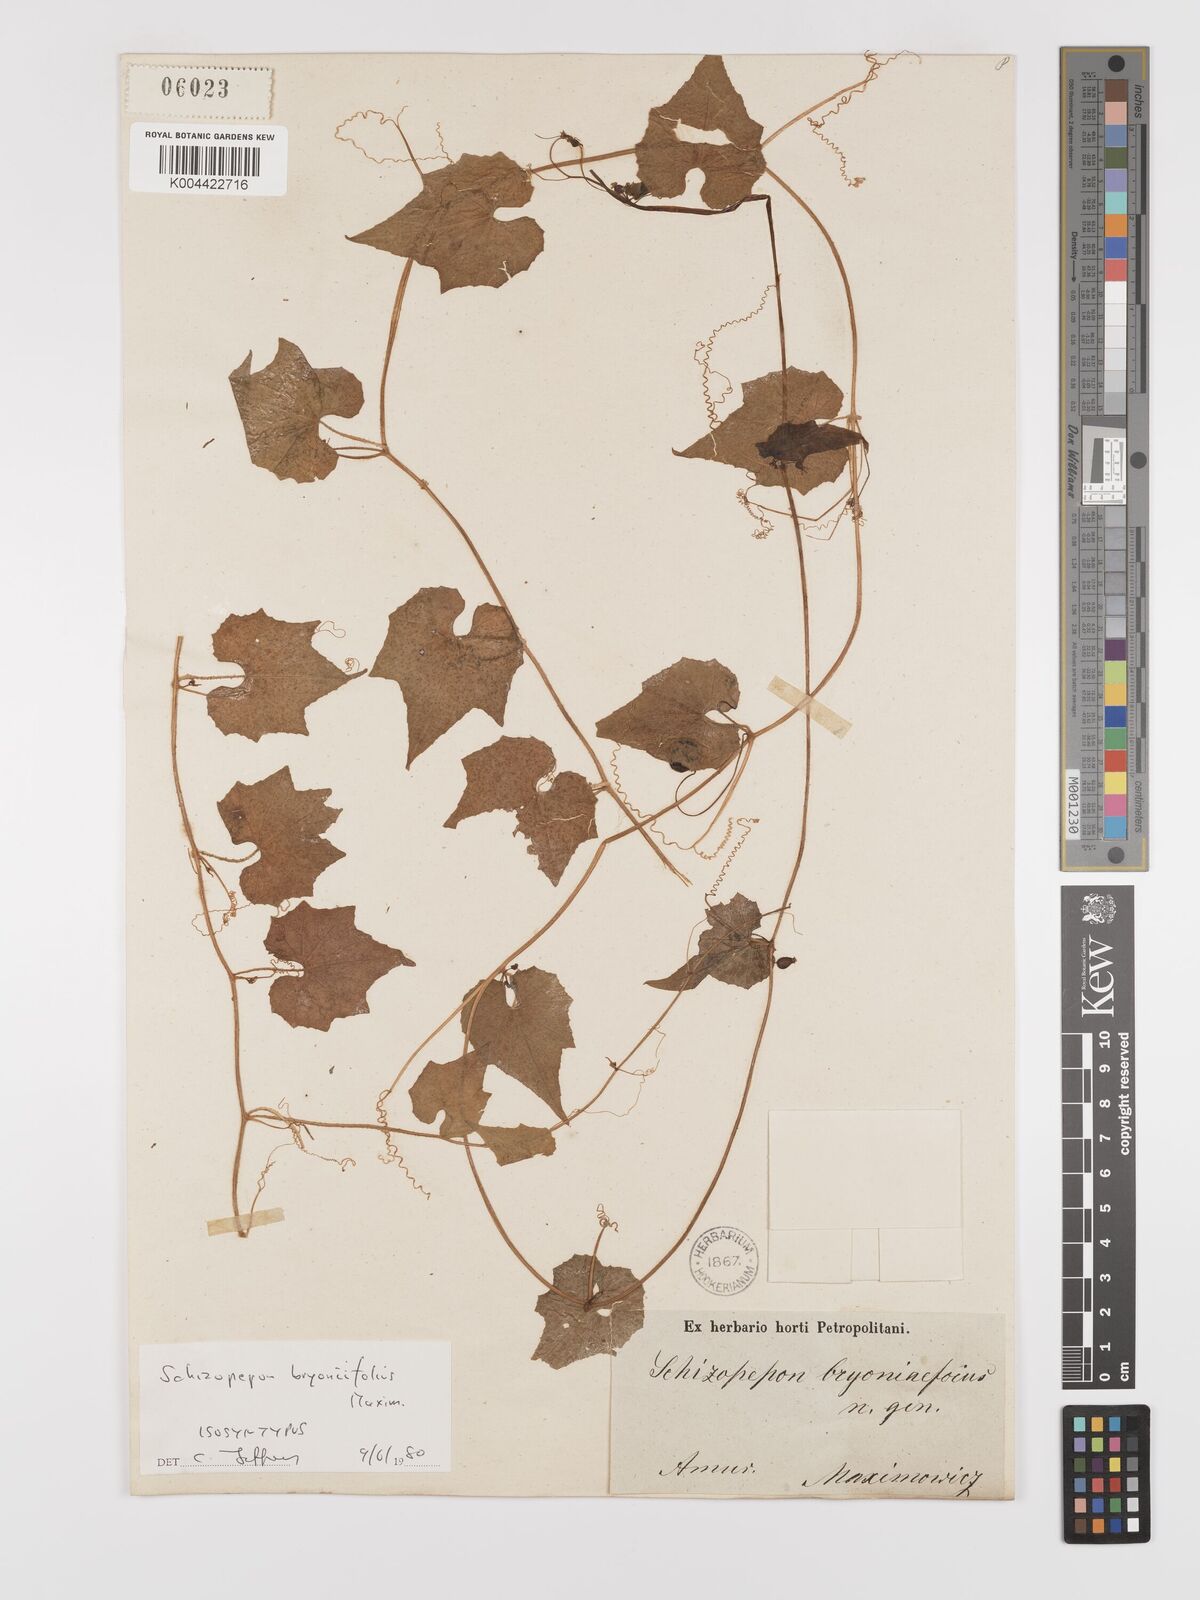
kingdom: Plantae
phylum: Tracheophyta
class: Magnoliopsida
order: Cucurbitales
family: Cucurbitaceae
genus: Schizopepon
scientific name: Schizopepon bryoniifolius
